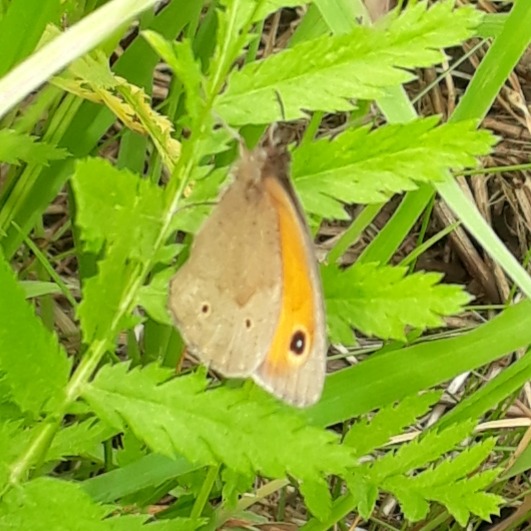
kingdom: Animalia
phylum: Arthropoda
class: Insecta
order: Lepidoptera
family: Nymphalidae
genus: Maniola
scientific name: Maniola jurtina
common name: Græsrandøje
